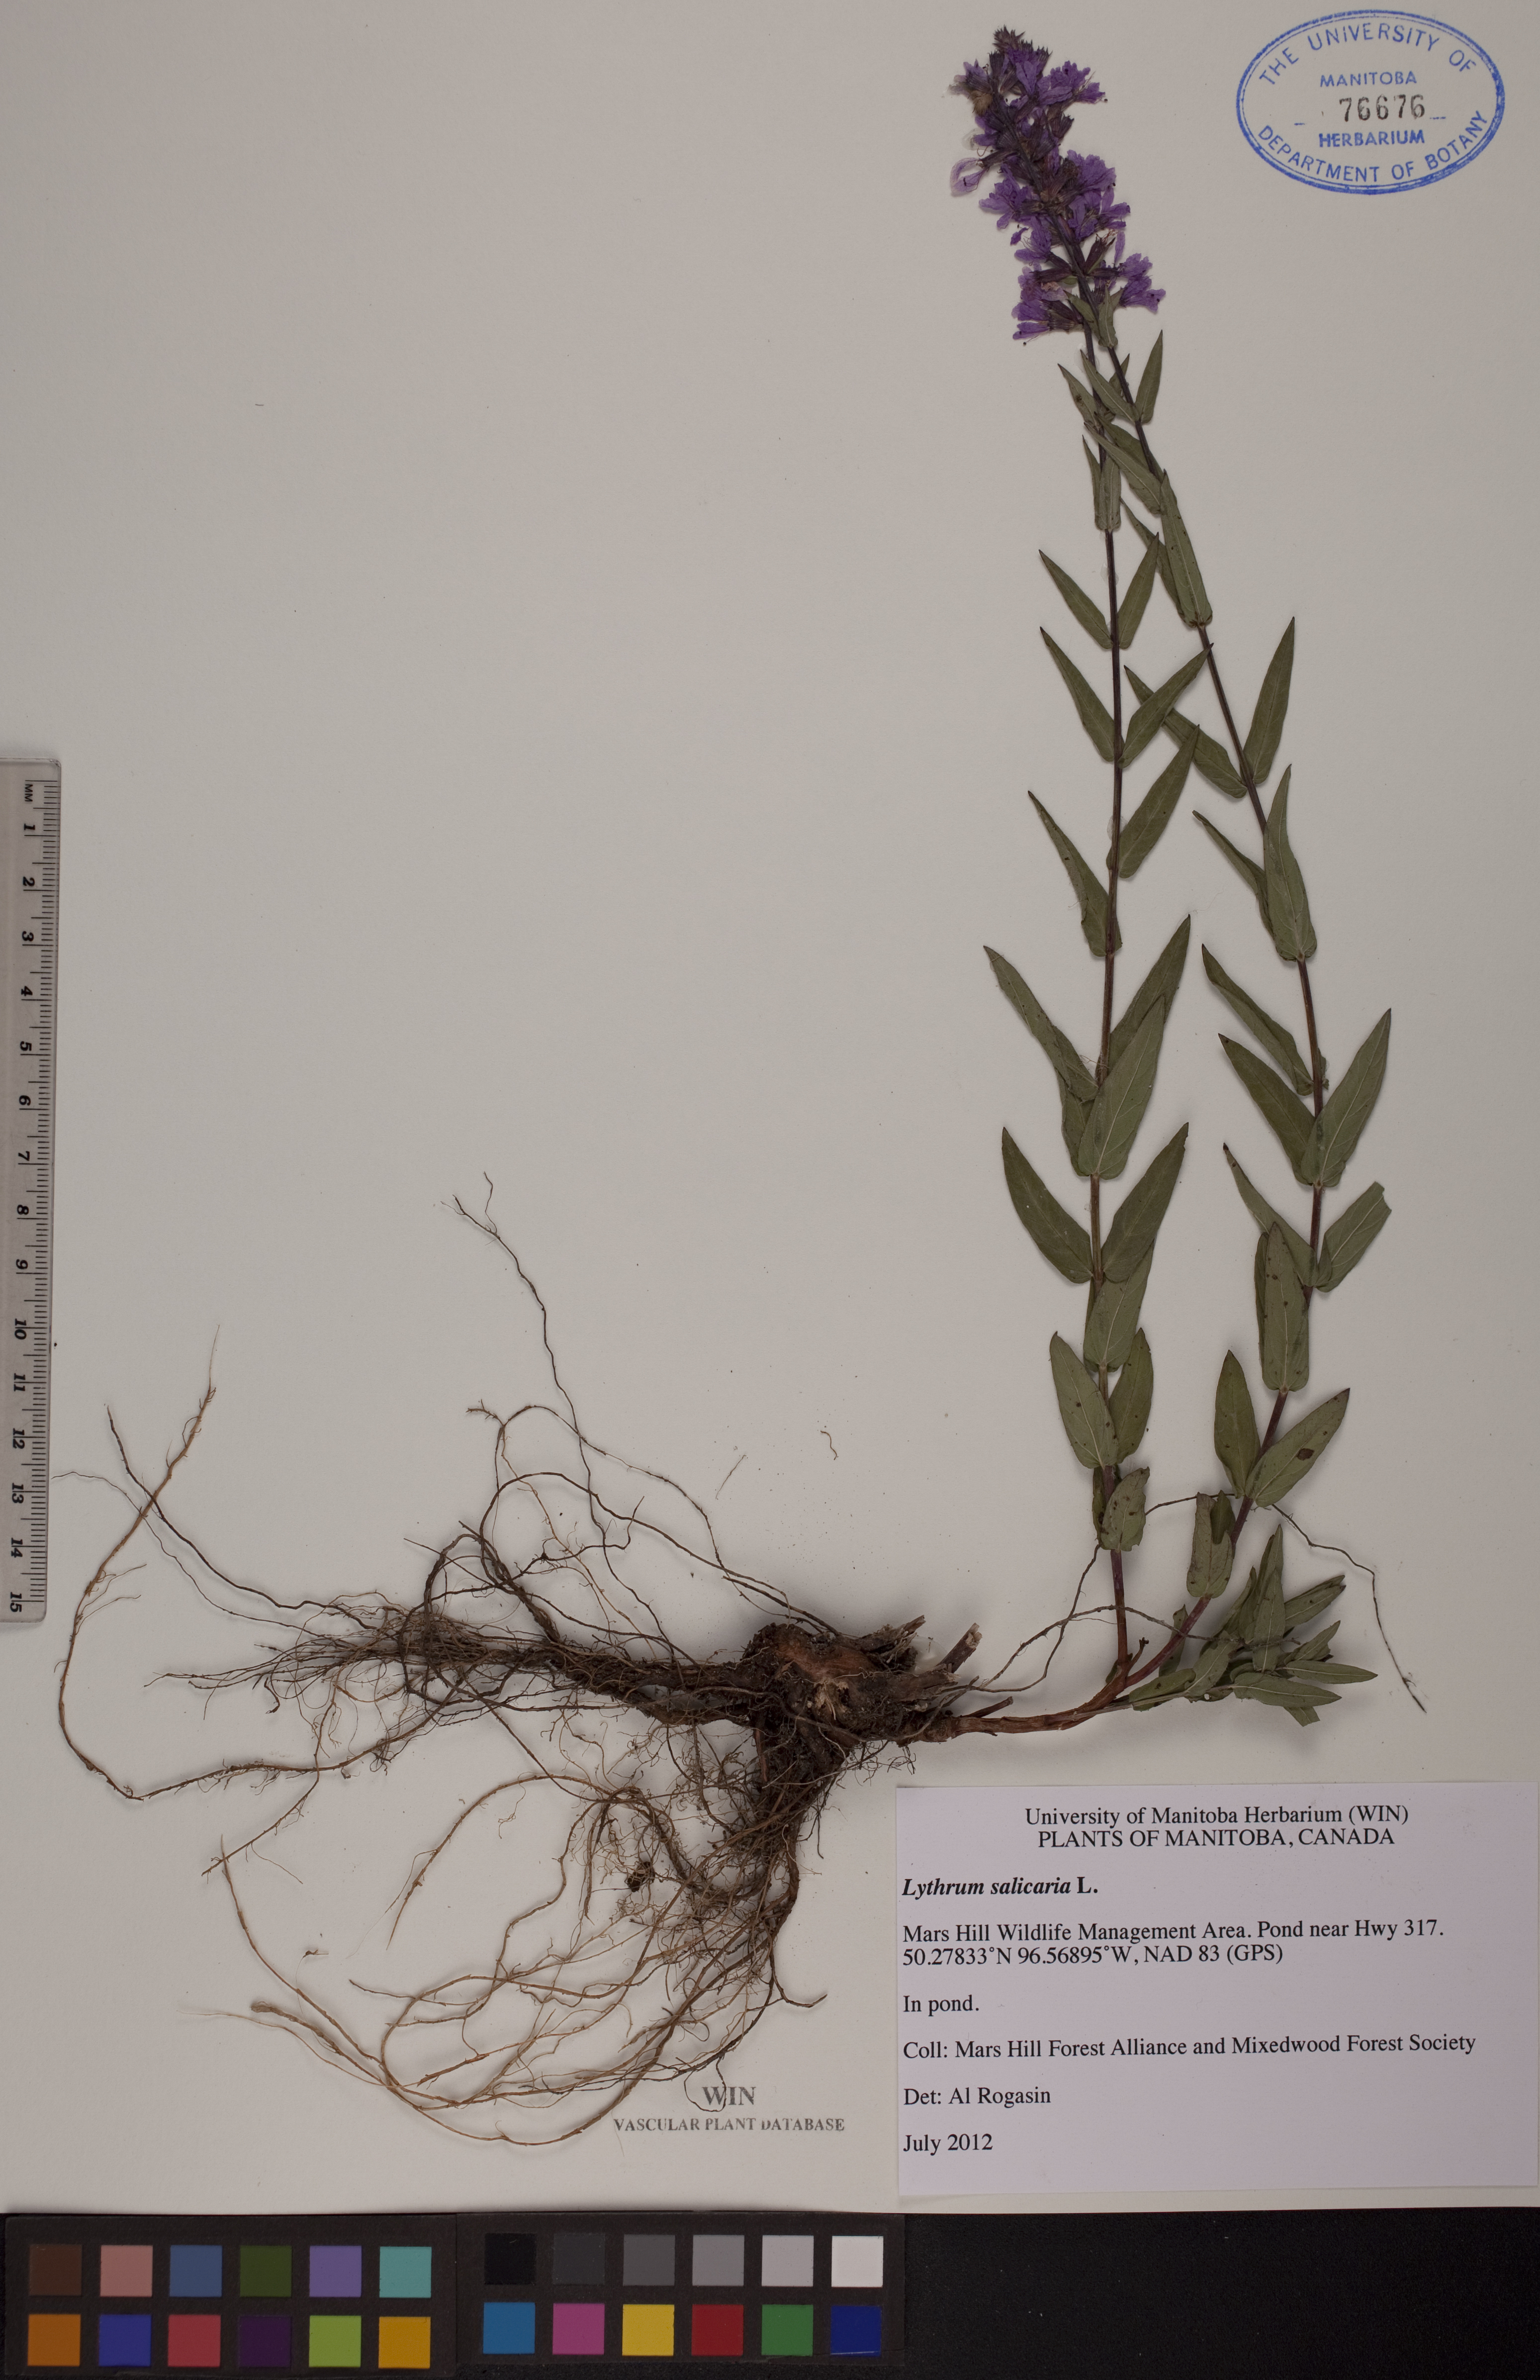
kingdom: Plantae
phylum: Tracheophyta
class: Magnoliopsida
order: Myrtales
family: Lythraceae
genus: Lythrum
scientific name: Lythrum salicaria
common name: Purple loosestrife
